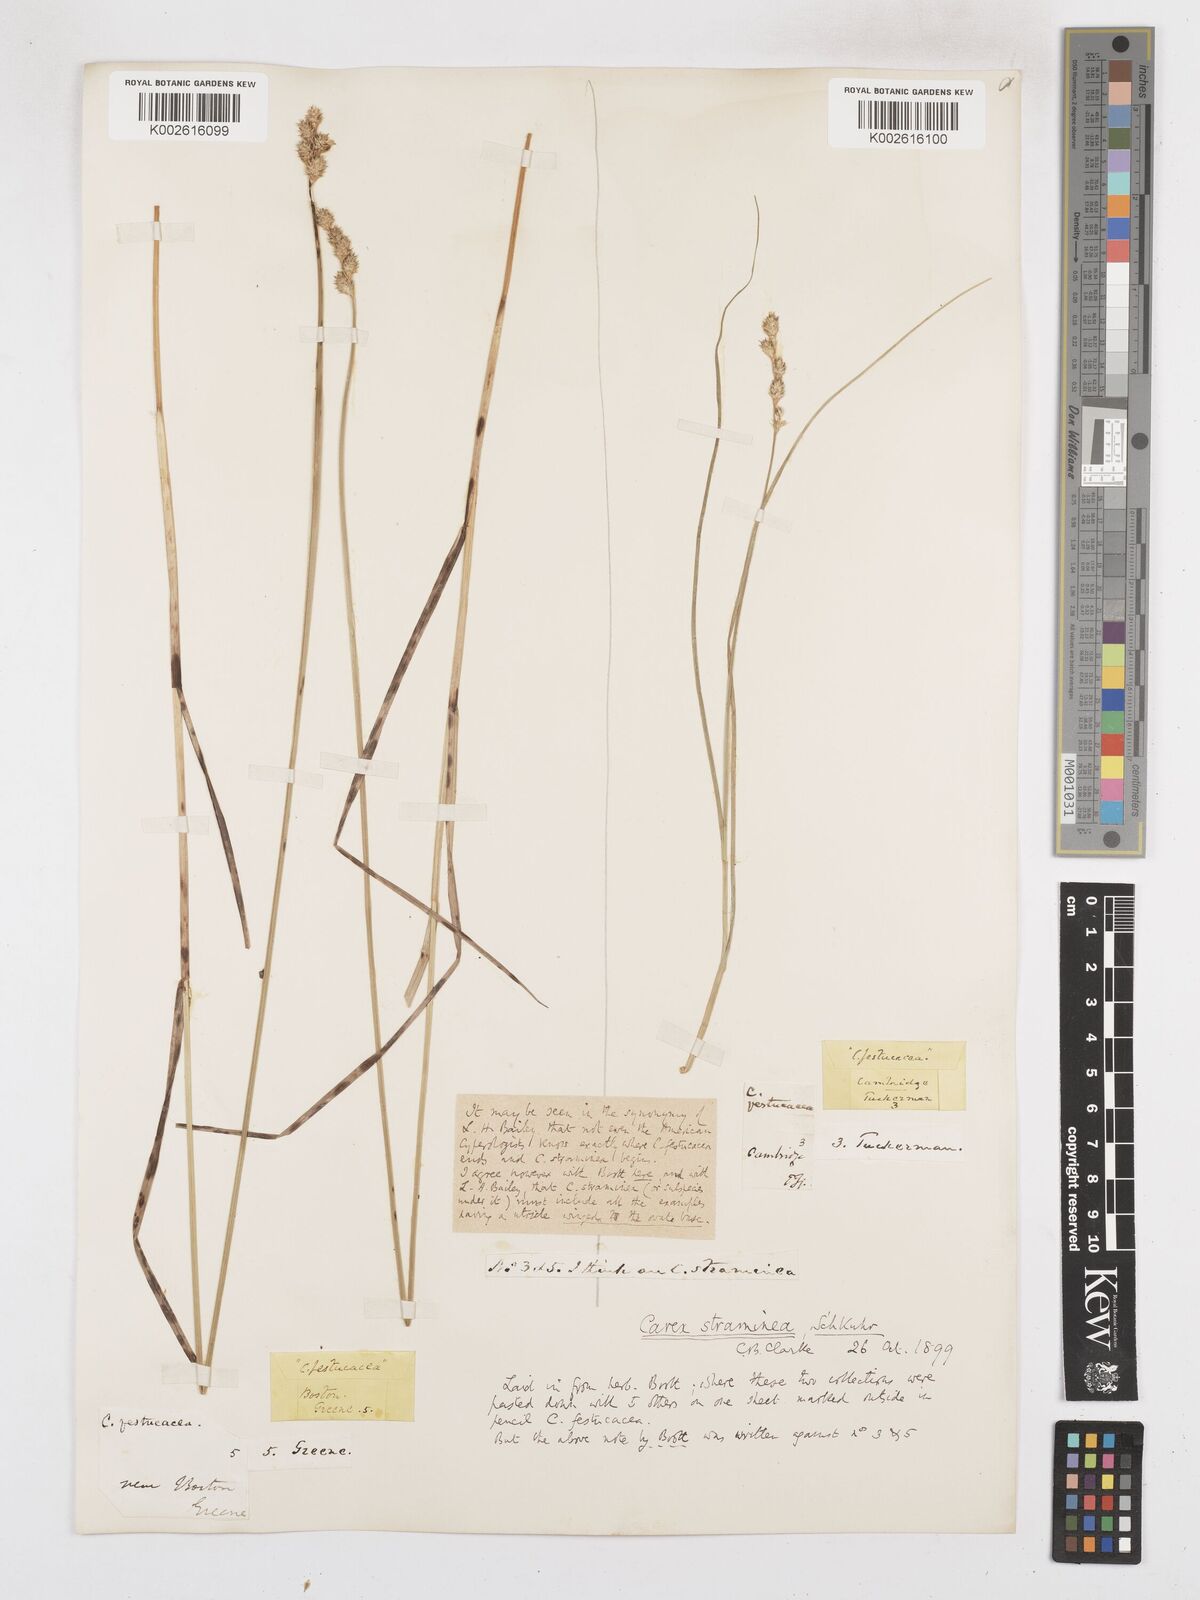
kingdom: Plantae
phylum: Tracheophyta
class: Liliopsida
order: Poales
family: Cyperaceae
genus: Carex
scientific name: Carex brevior
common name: Brevior sedge
